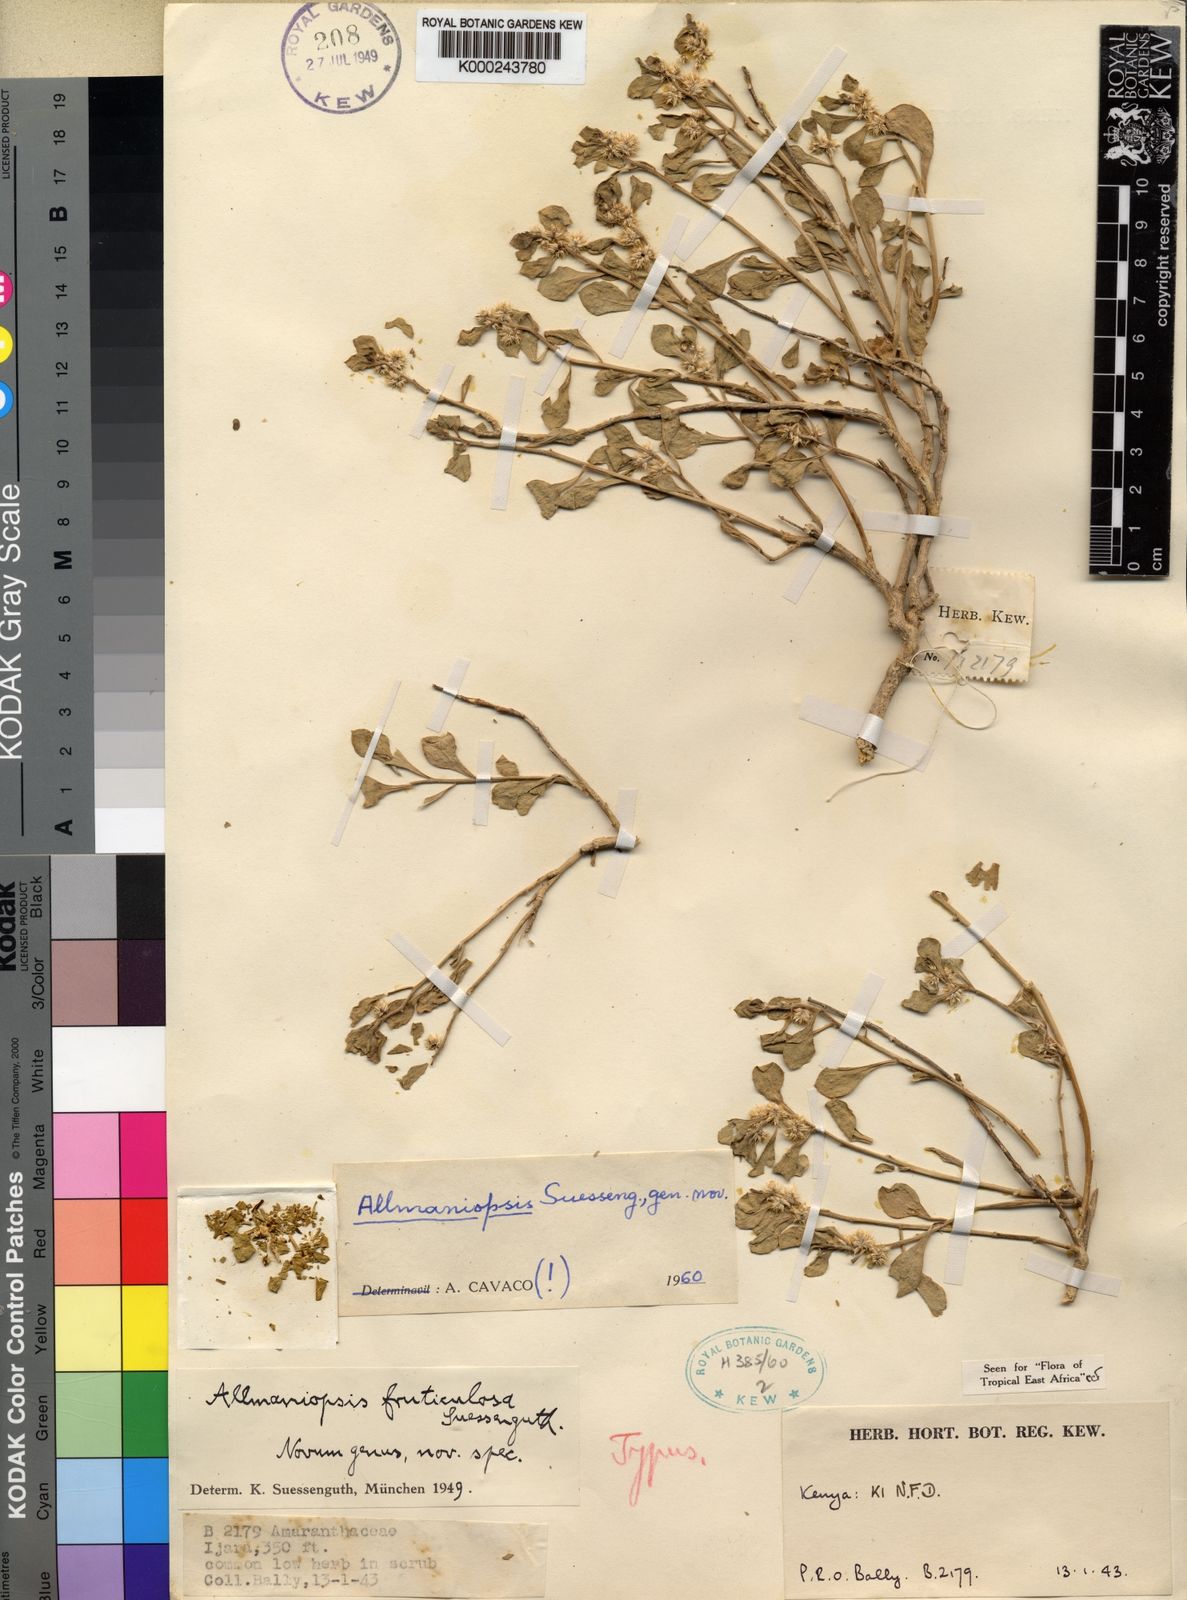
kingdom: Plantae
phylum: Tracheophyta
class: Magnoliopsida
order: Caryophyllales
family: Amaranthaceae
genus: Allmaniopsis
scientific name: Allmaniopsis fruticulosa
